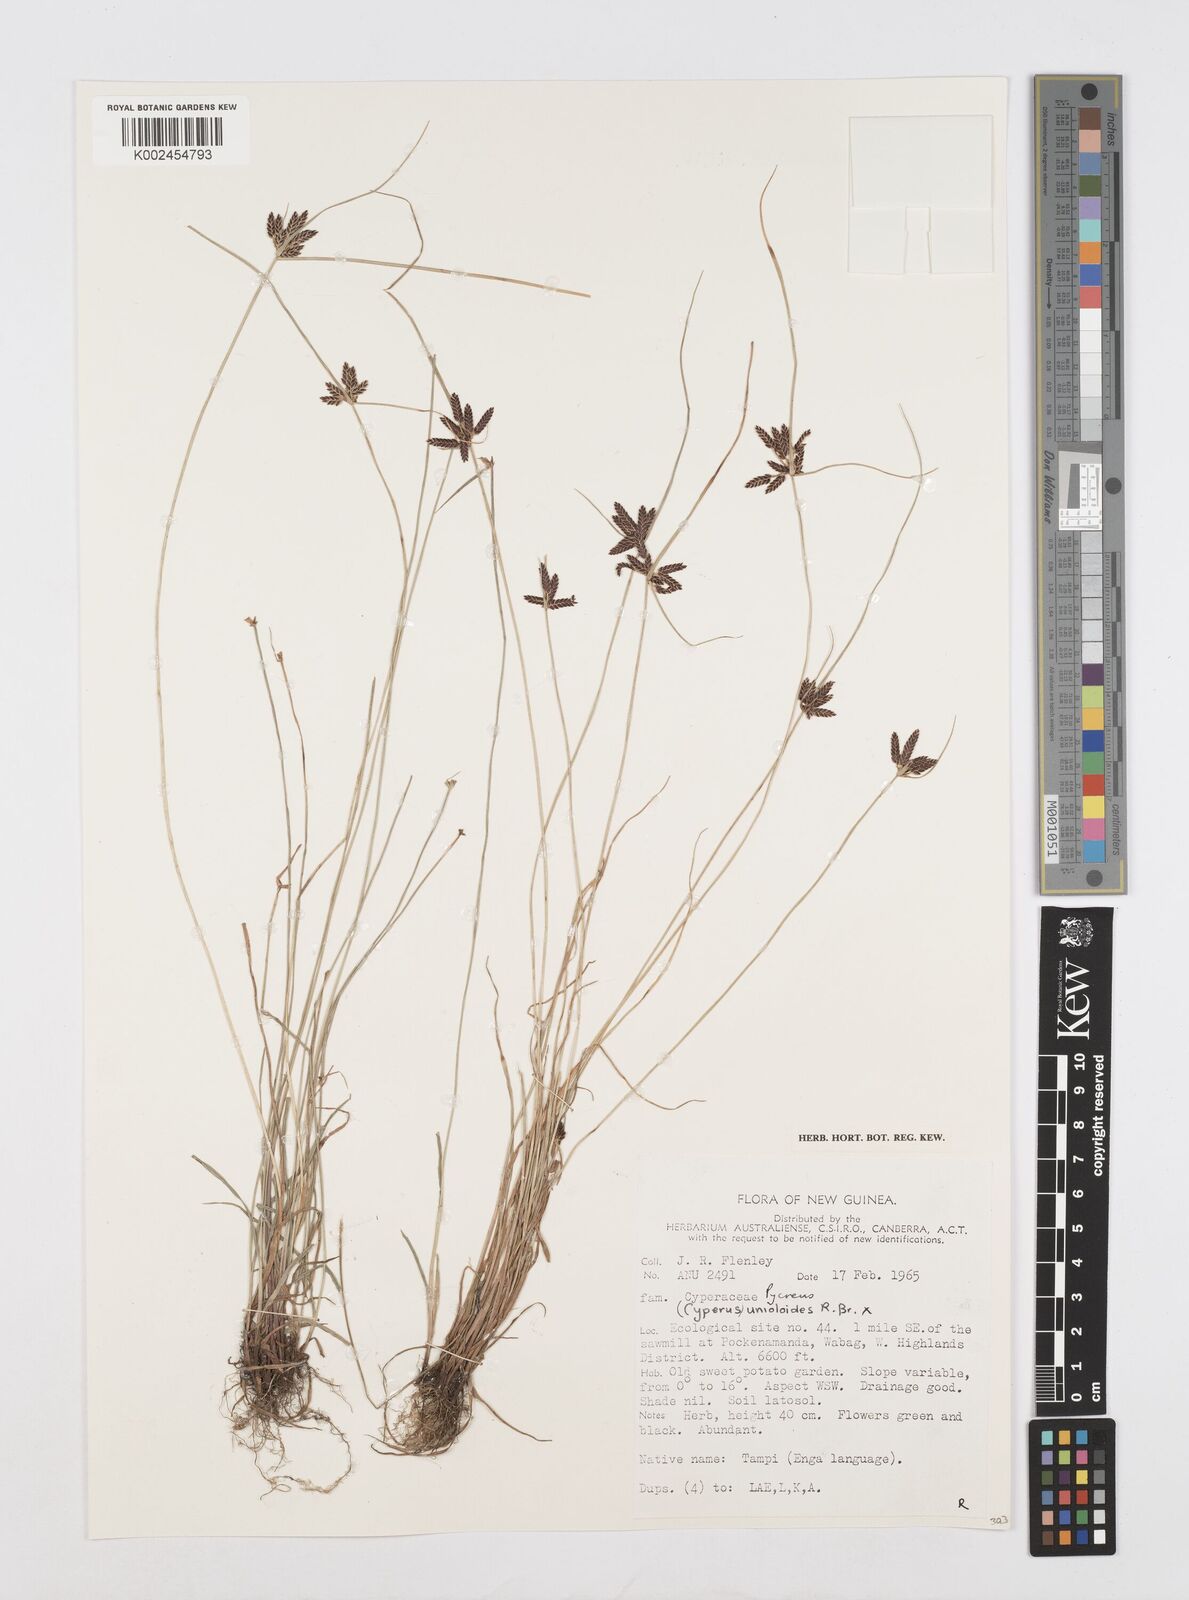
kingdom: Plantae
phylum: Tracheophyta
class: Liliopsida
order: Poales
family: Cyperaceae
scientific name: Cyperaceae
